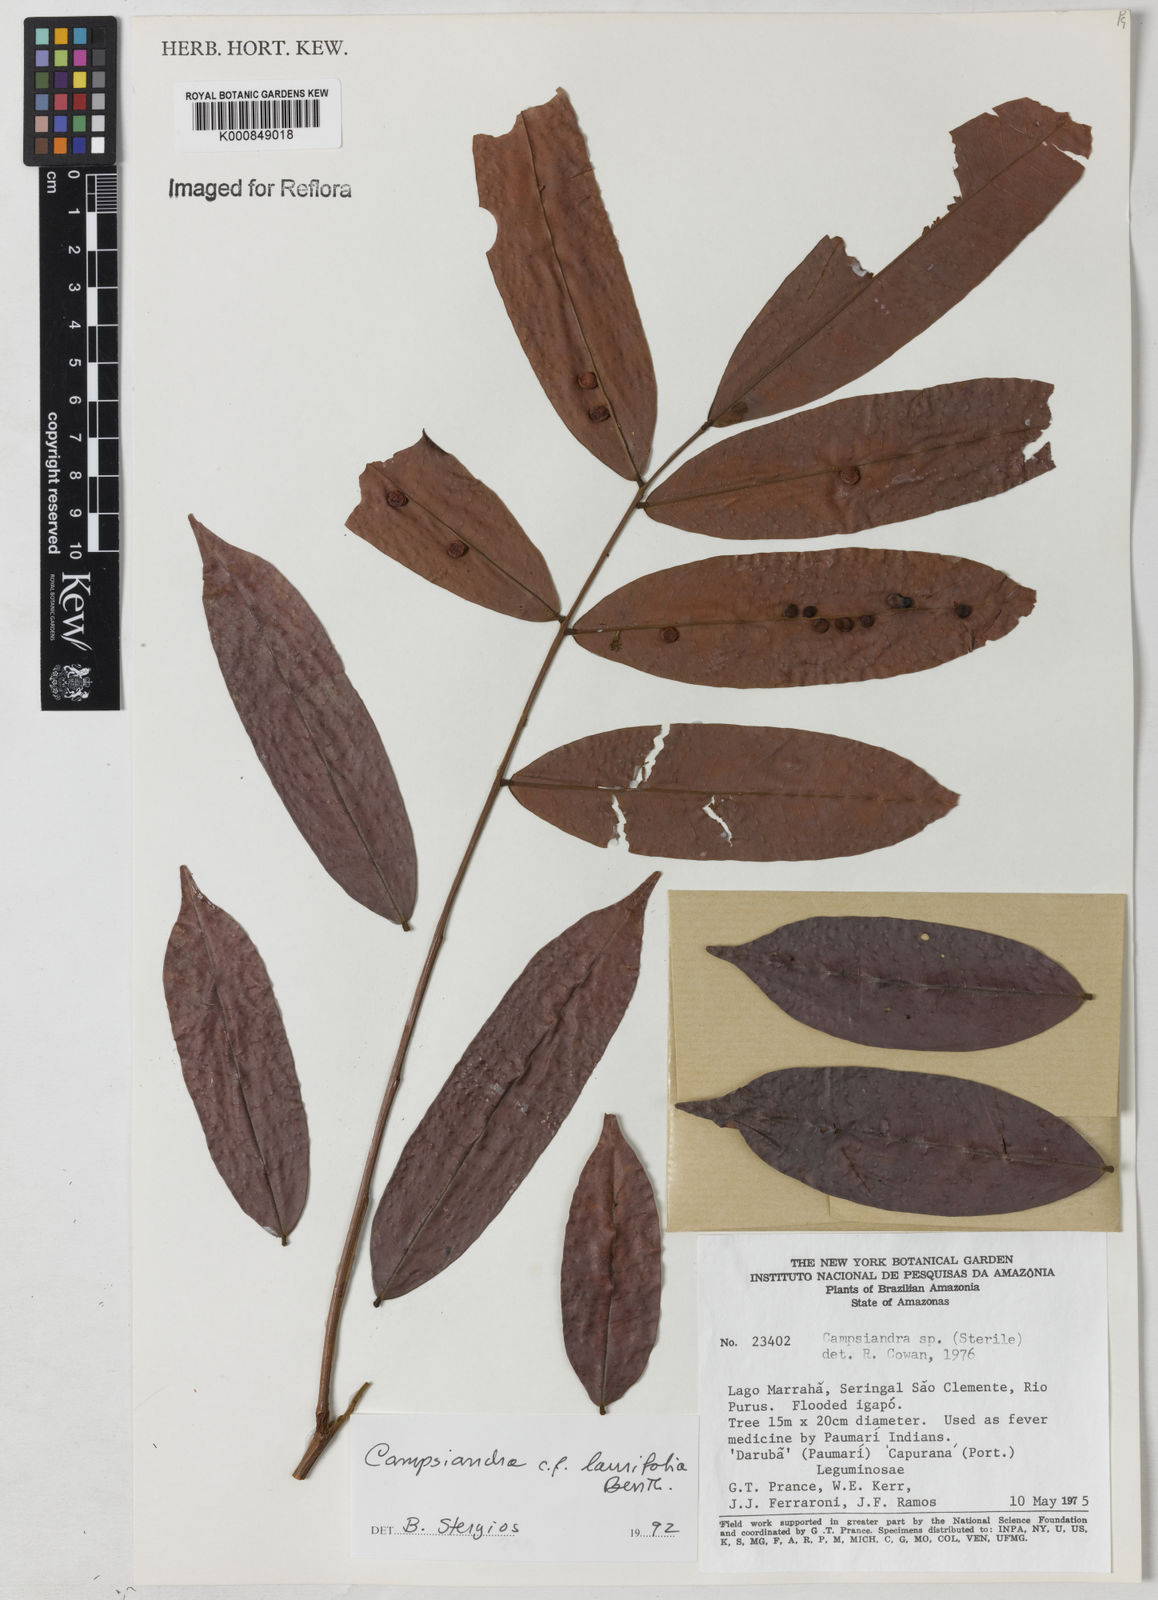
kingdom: Plantae
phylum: Tracheophyta
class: Magnoliopsida
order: Fabales
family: Fabaceae
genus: Campsiandra
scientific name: Campsiandra laurifolia
